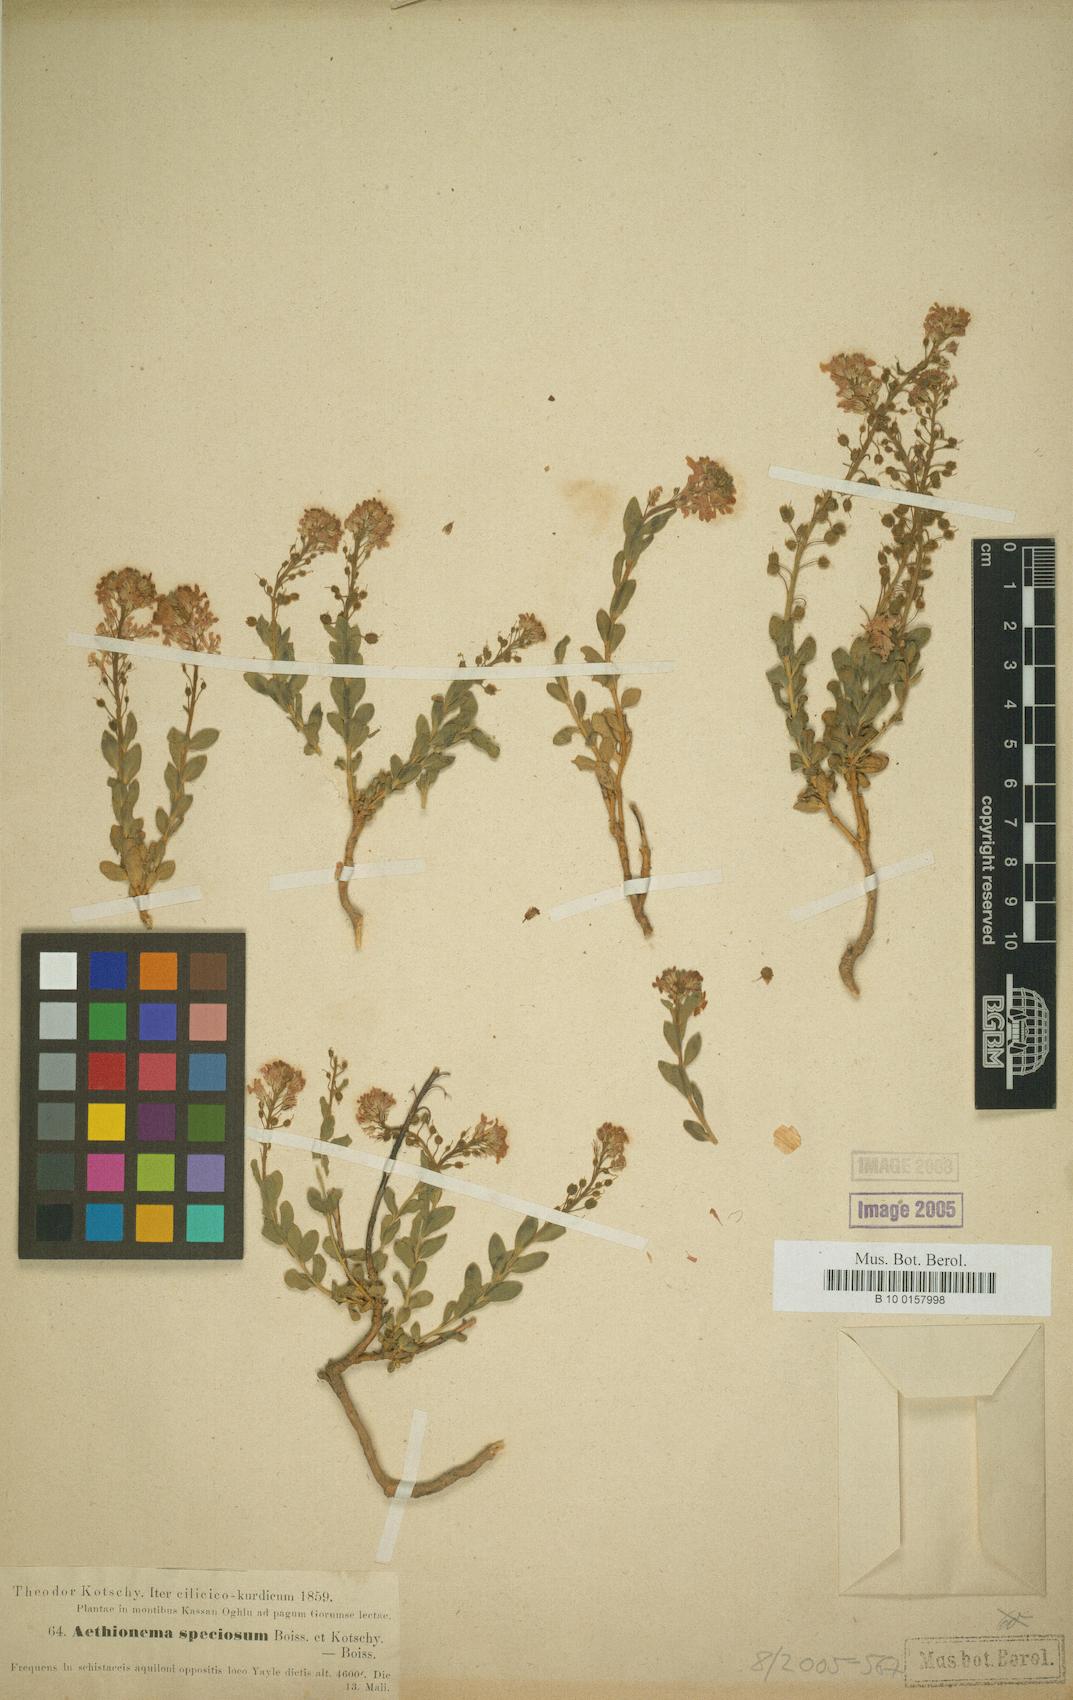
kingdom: Plantae
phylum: Tracheophyta
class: Magnoliopsida
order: Brassicales
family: Brassicaceae
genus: Aethionema
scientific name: Aethionema speciosum
